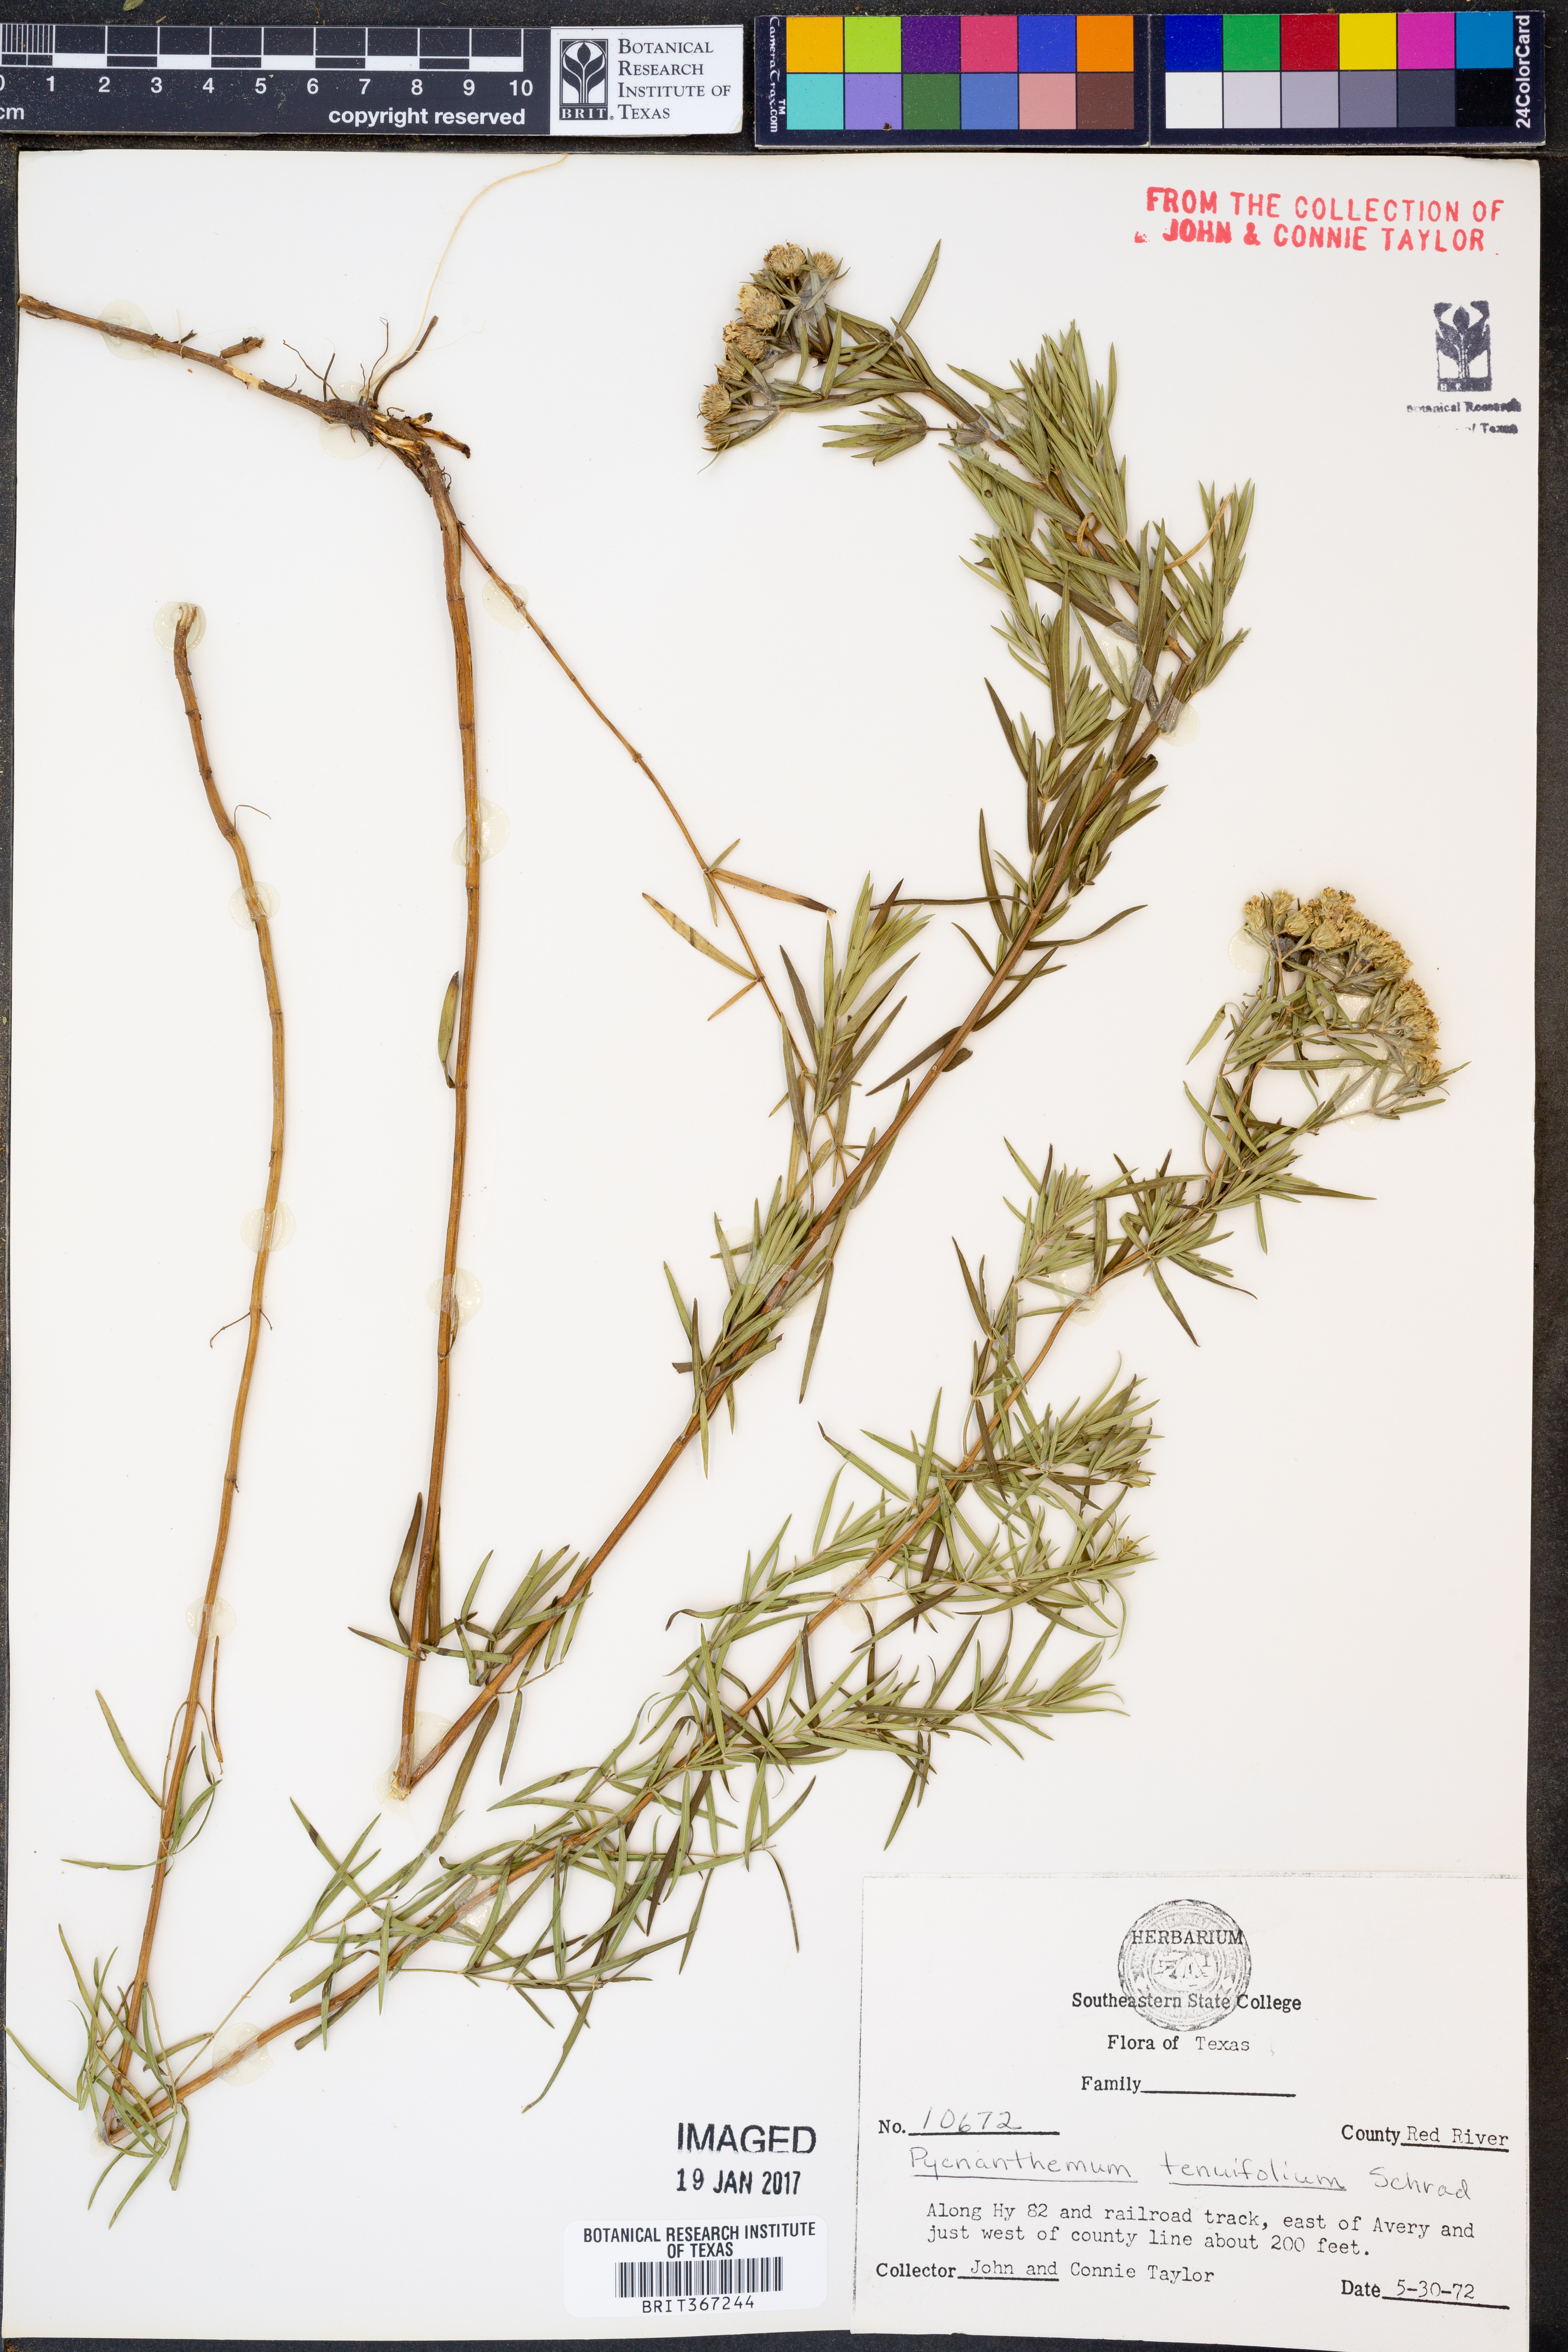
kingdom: Plantae
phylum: Tracheophyta
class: Magnoliopsida
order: Lamiales
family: Lamiaceae
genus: Pycnanthemum
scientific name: Pycnanthemum tenuifolium
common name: Narrow-leaf mountain-mint
